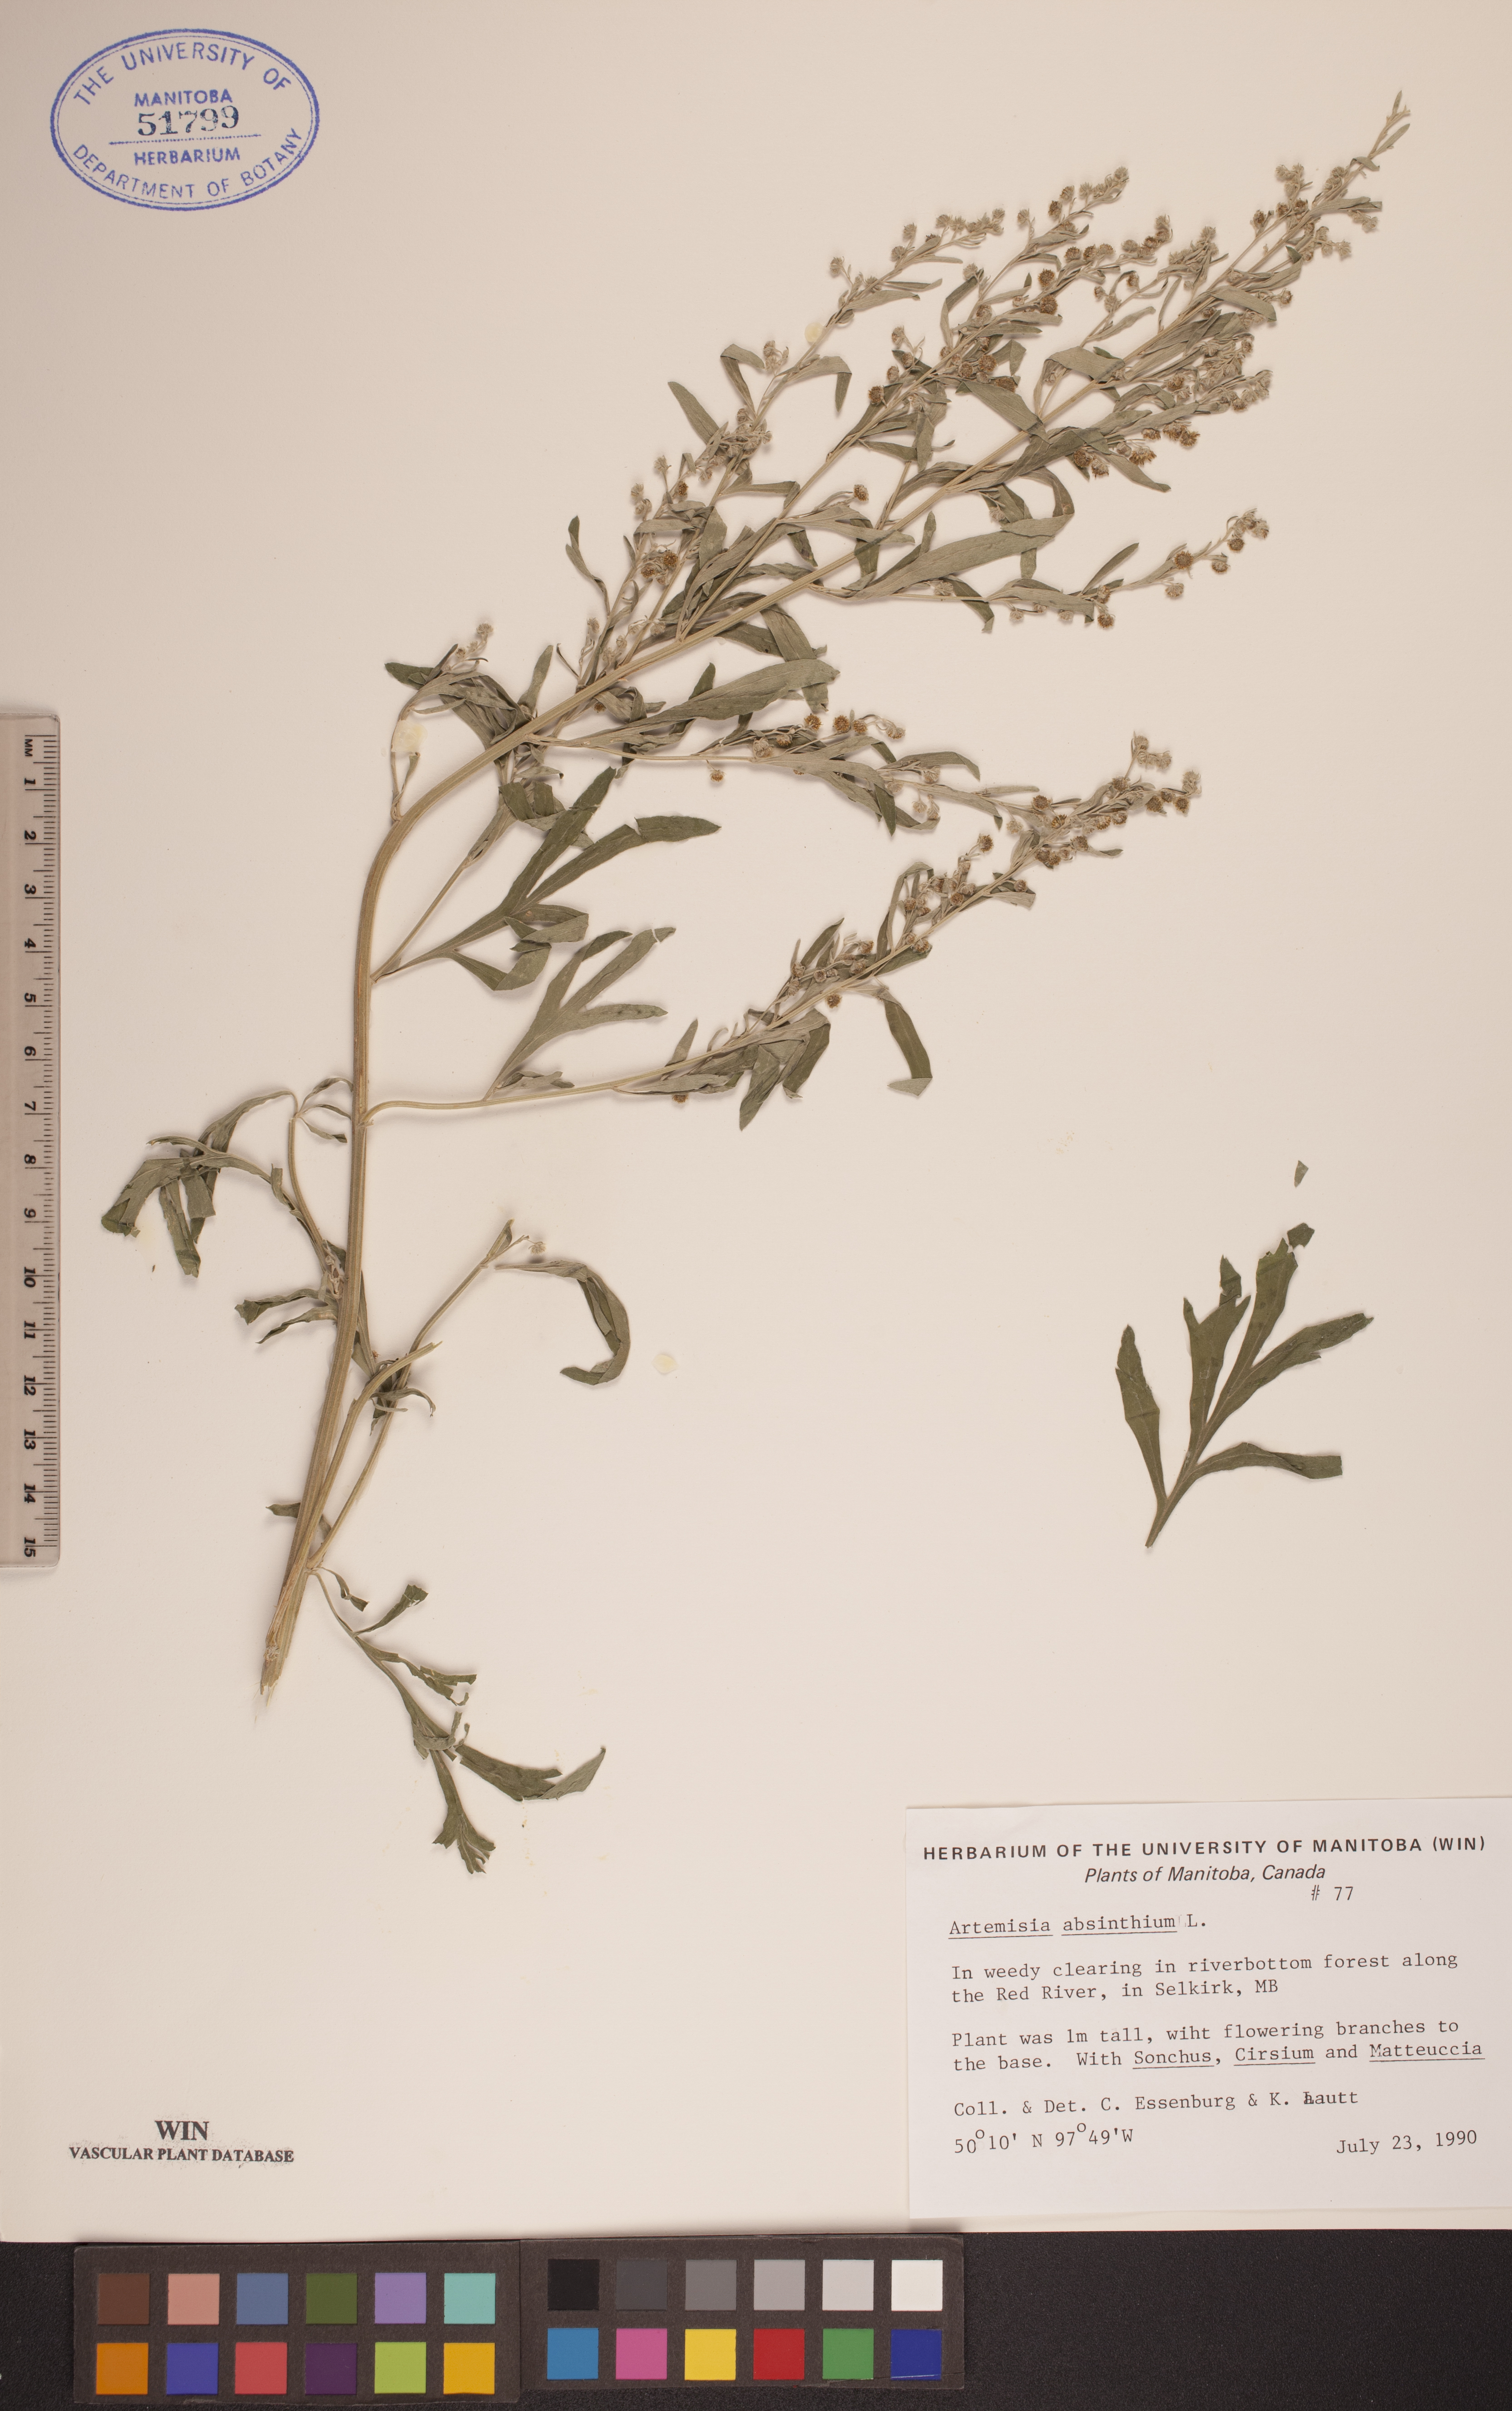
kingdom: Plantae
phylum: Tracheophyta
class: Magnoliopsida
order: Asterales
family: Asteraceae
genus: Artemisia
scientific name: Artemisia absinthium
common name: Wormwood
